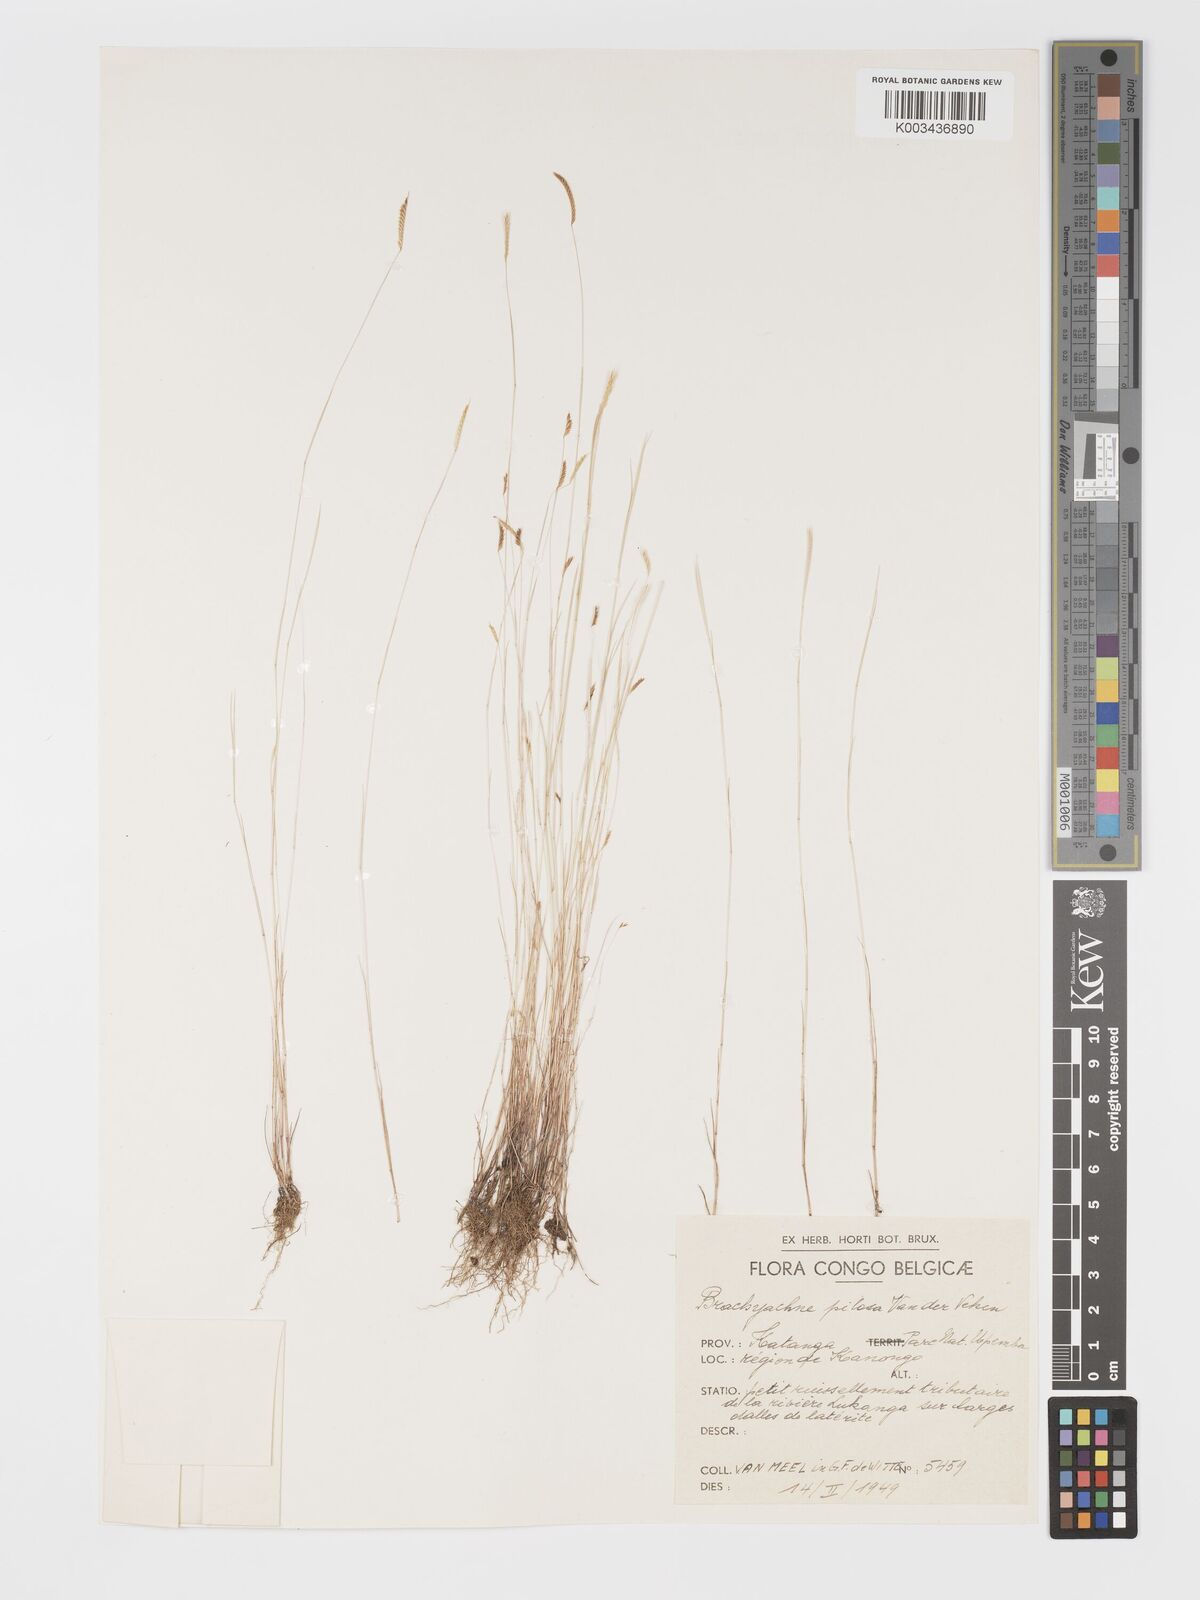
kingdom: Plantae
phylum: Tracheophyta
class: Liliopsida
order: Poales
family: Poaceae
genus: Micrachne
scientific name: Micrachne pilosa
